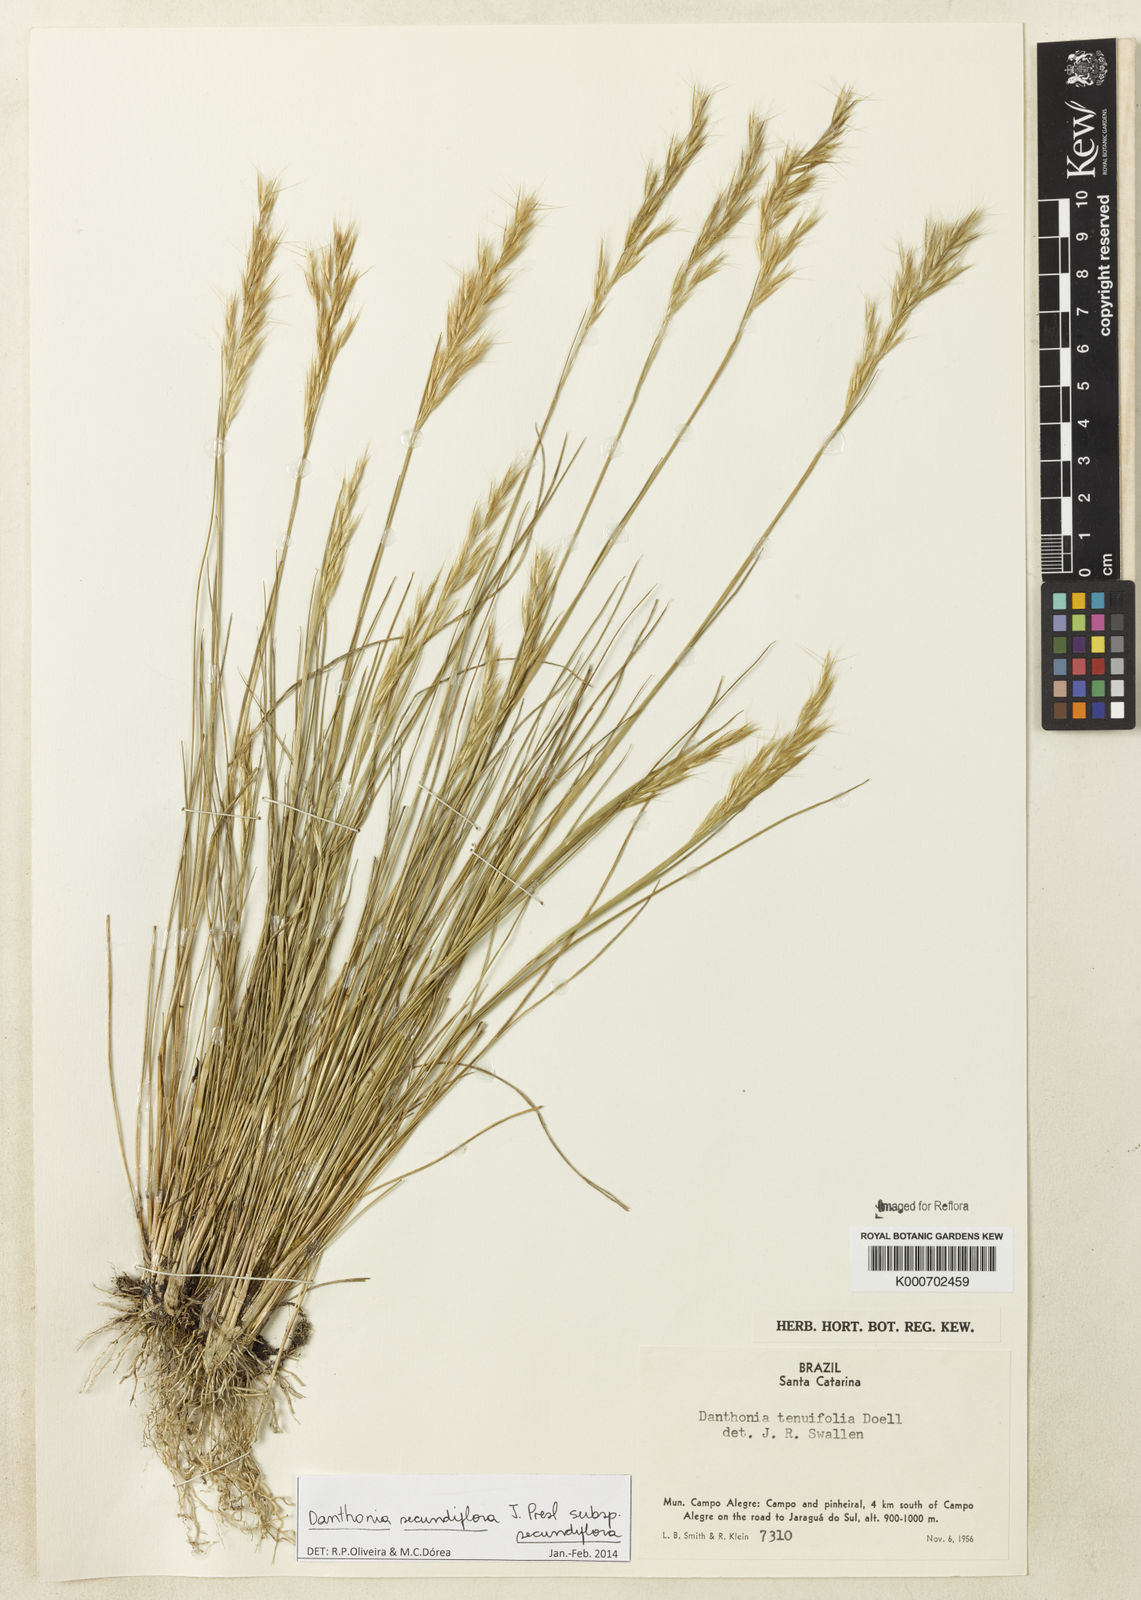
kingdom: Plantae
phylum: Tracheophyta
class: Liliopsida
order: Poales
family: Poaceae
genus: Danthonia
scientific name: Danthonia secundiflora
